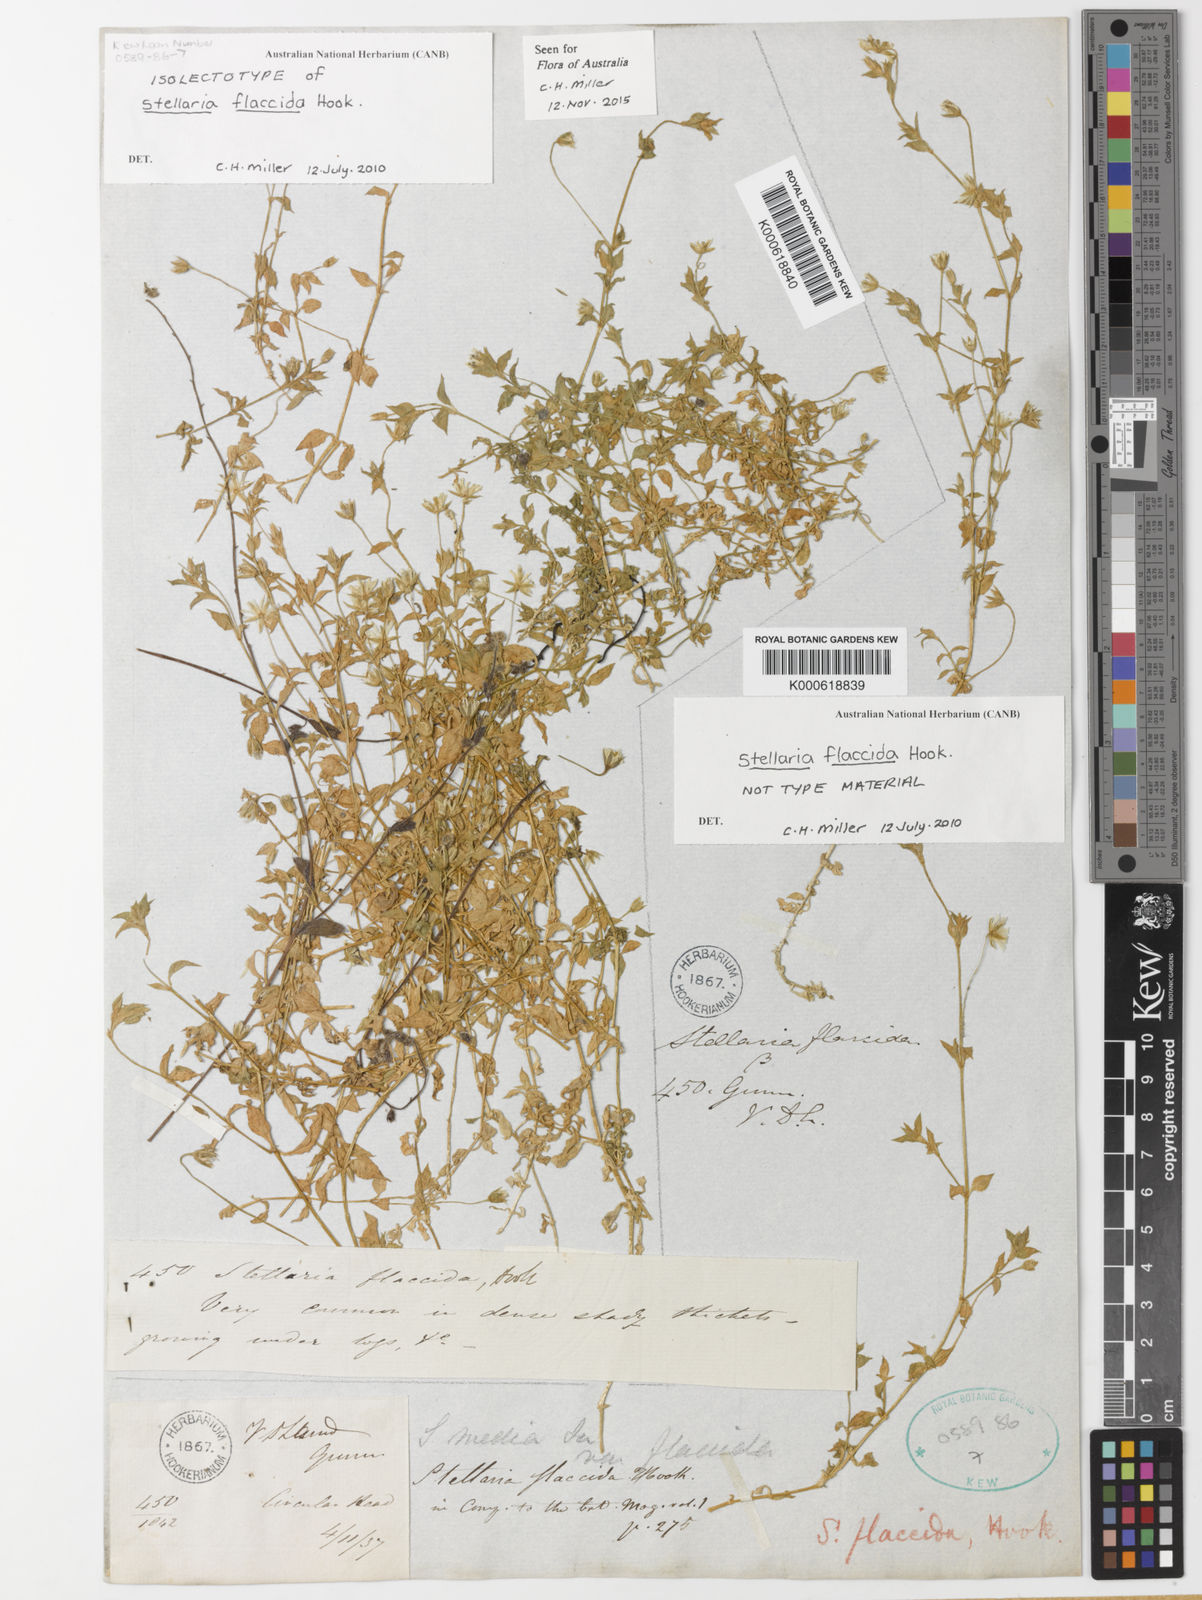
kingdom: Plantae
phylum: Tracheophyta
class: Magnoliopsida
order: Caryophyllales
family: Caryophyllaceae
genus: Stellaria
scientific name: Stellaria flaccida
